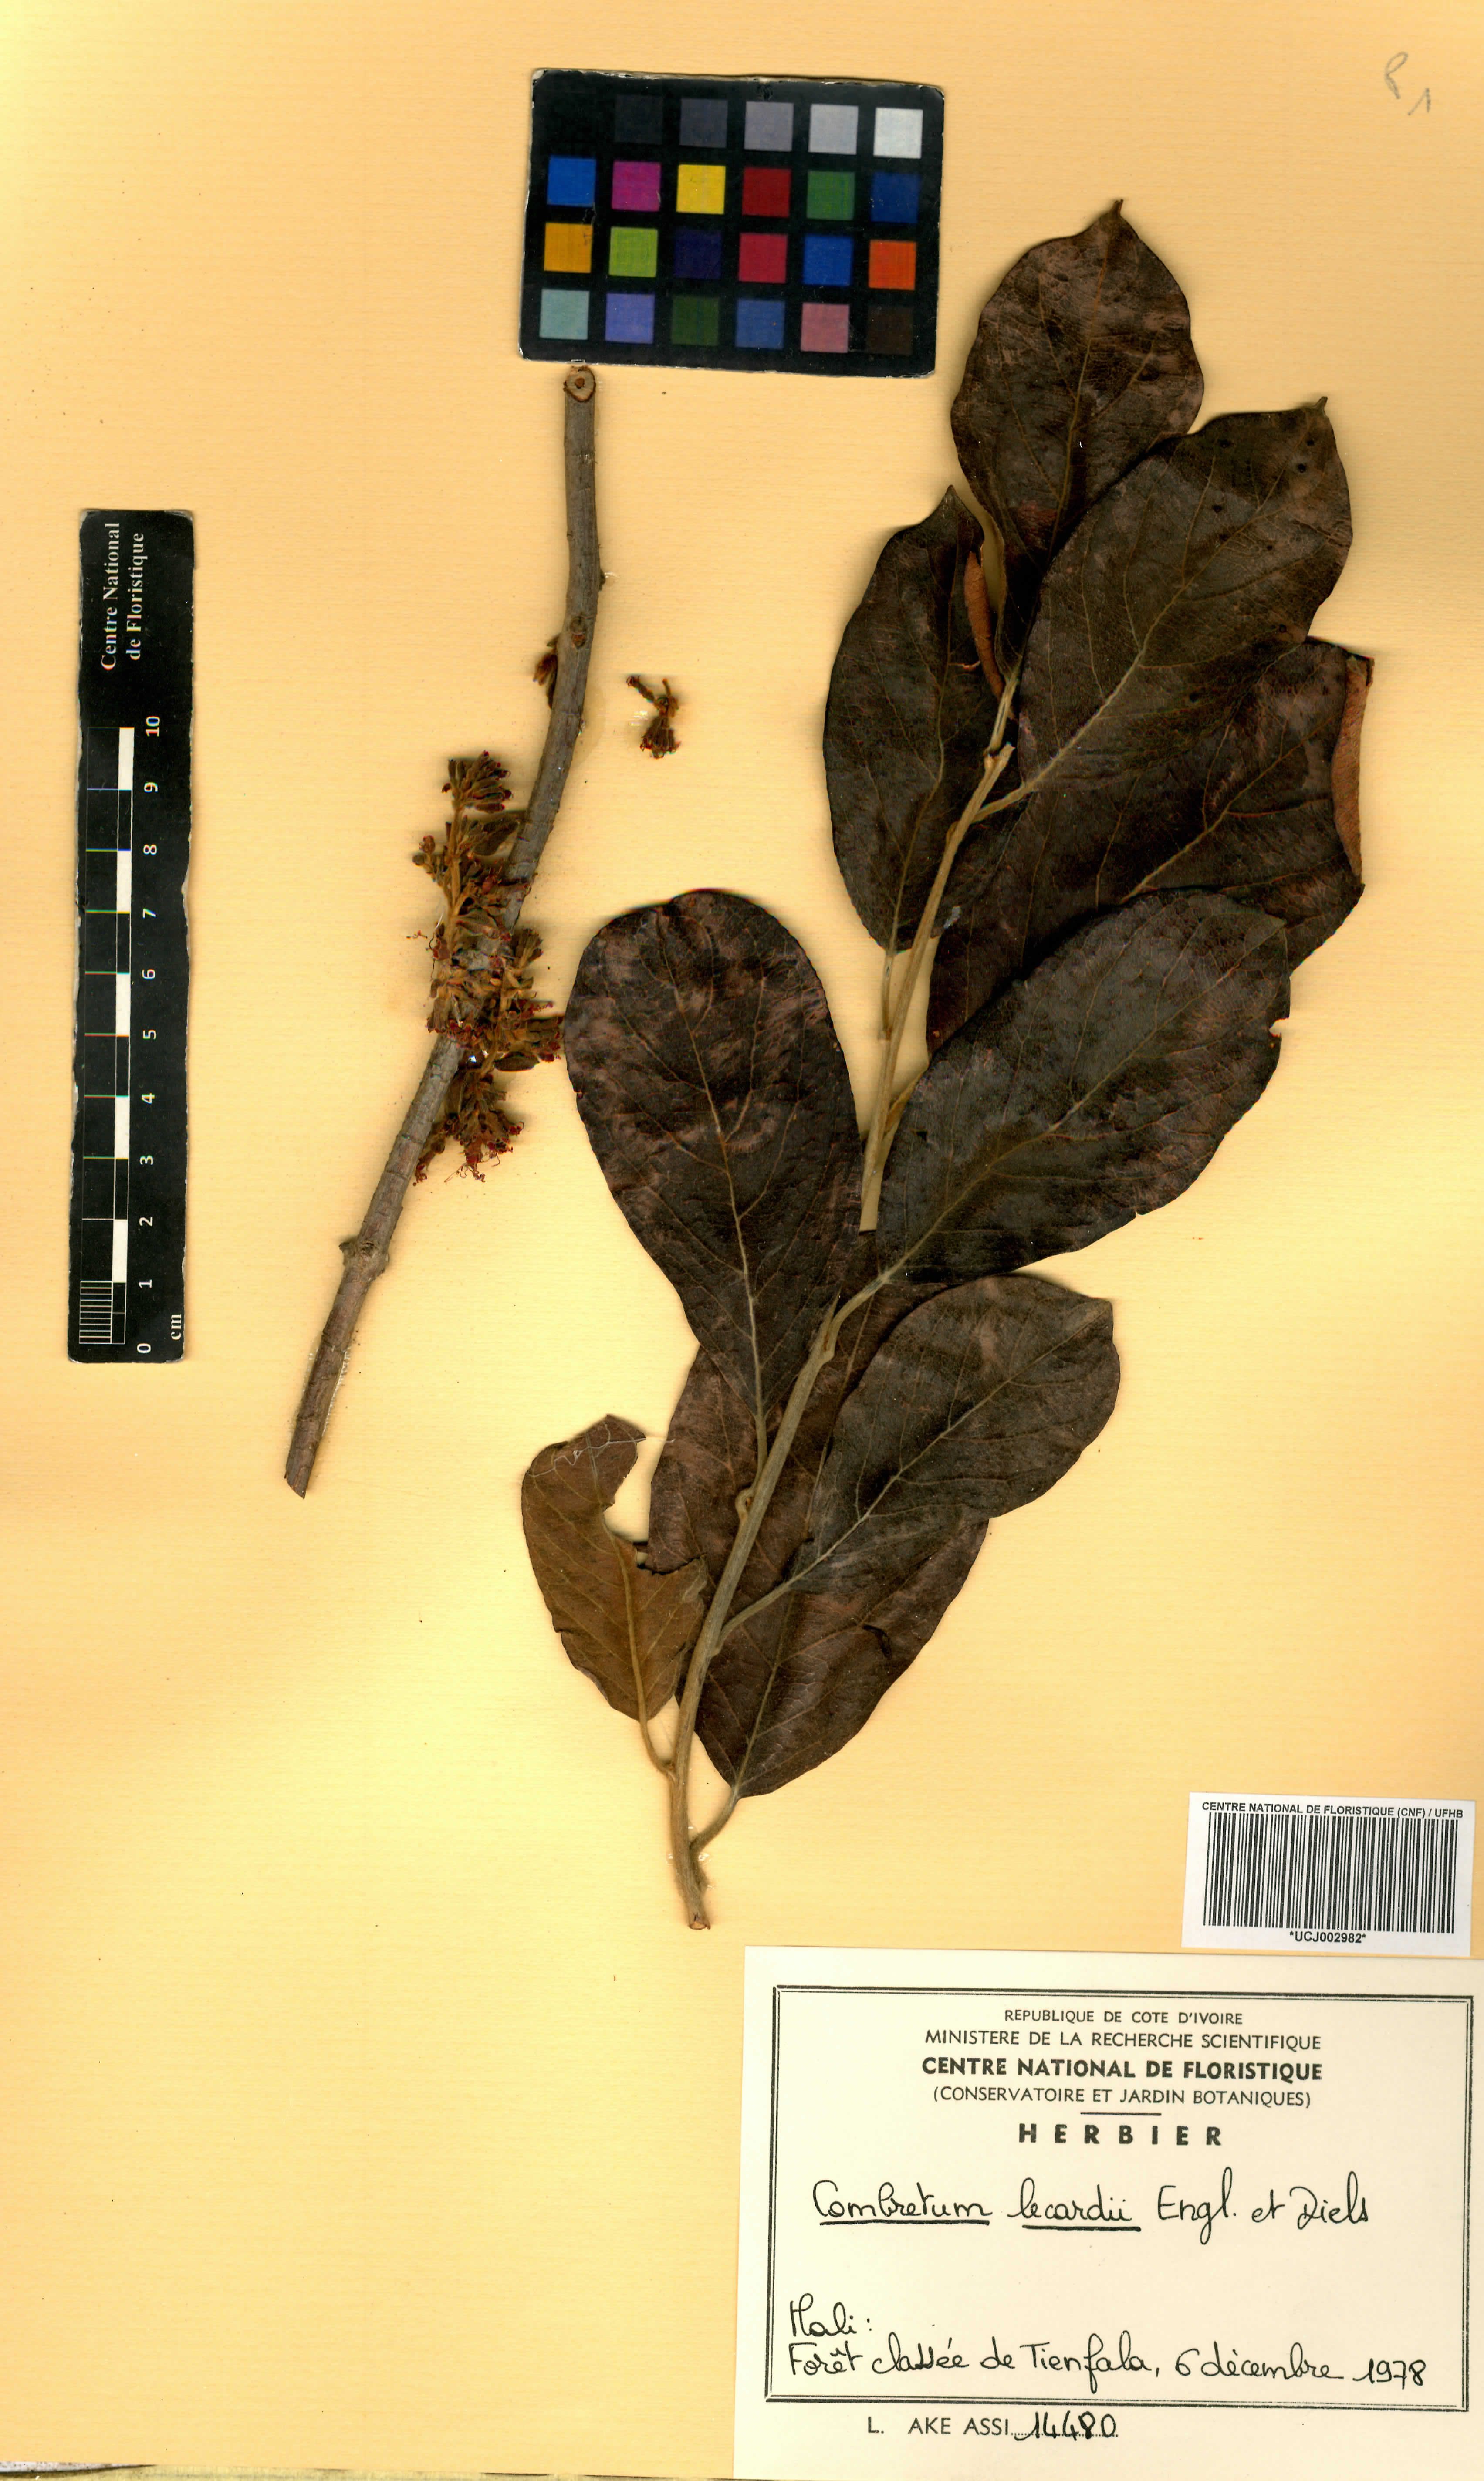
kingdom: Plantae
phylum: Tracheophyta
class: Magnoliopsida
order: Myrtales
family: Combretaceae
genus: Combretum
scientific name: Combretum lecardii
